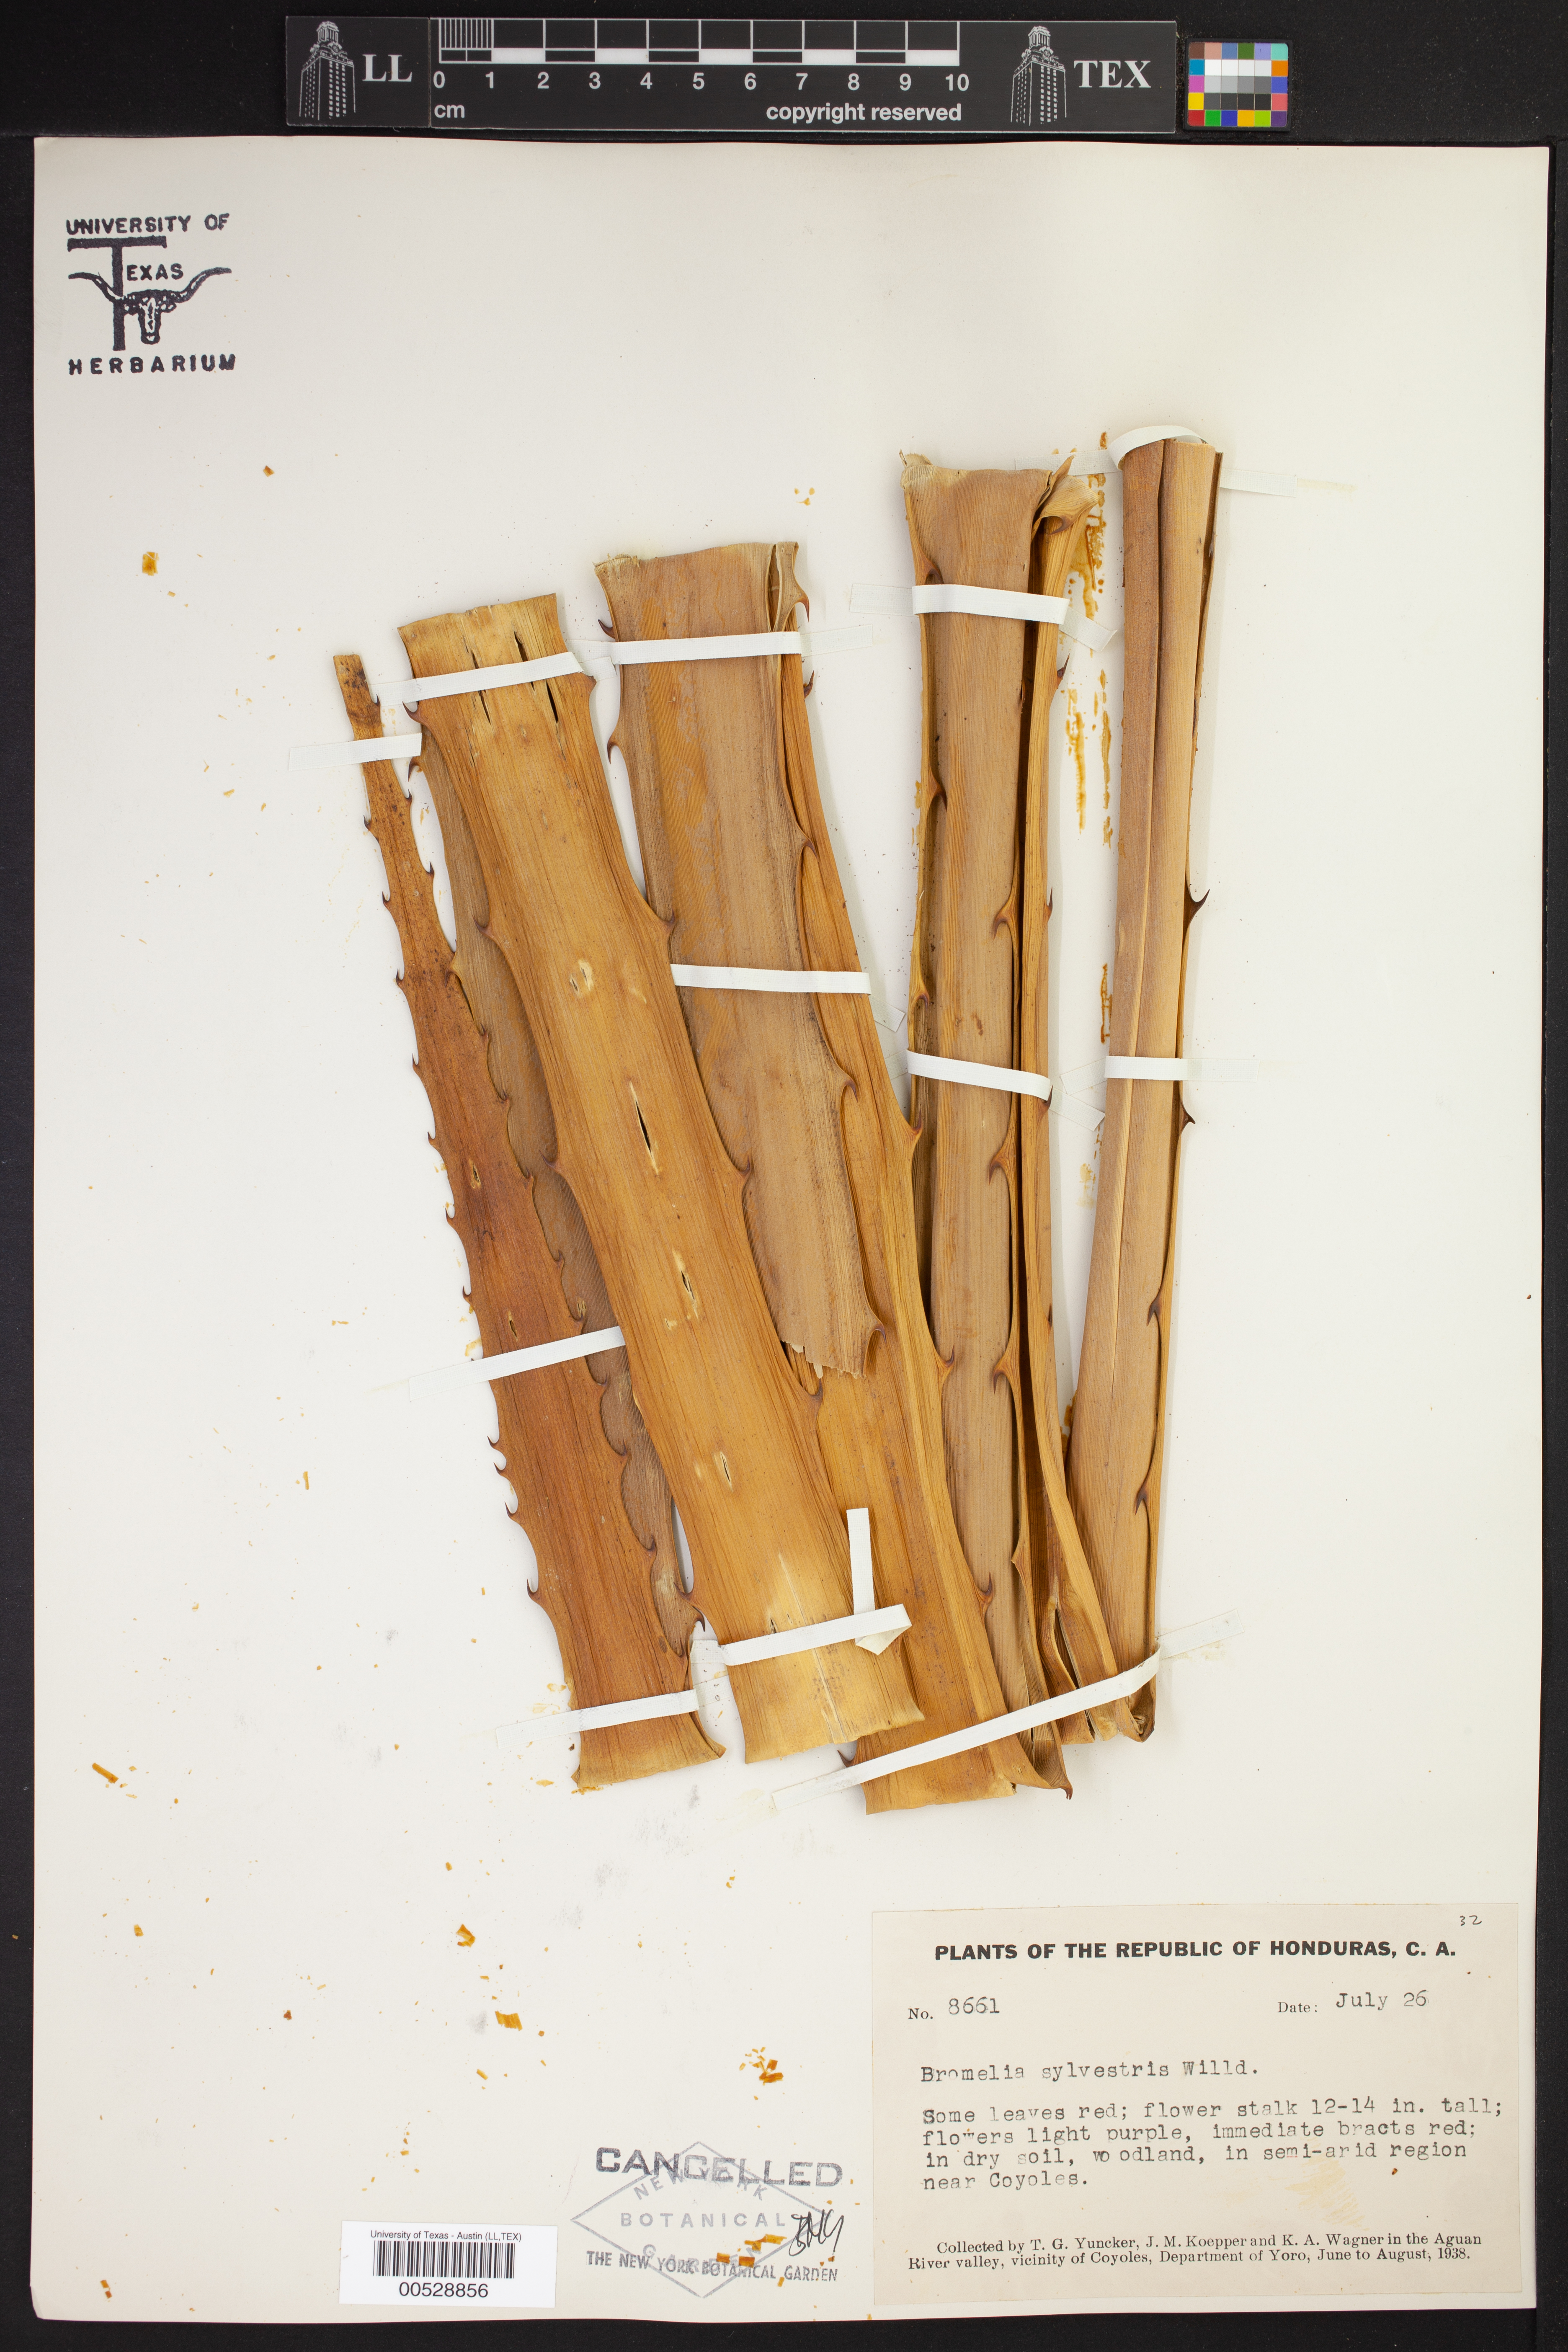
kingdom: Plantae
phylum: Tracheophyta
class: Liliopsida
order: Poales
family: Bromeliaceae
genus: Bromelia
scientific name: Bromelia sylvestris
